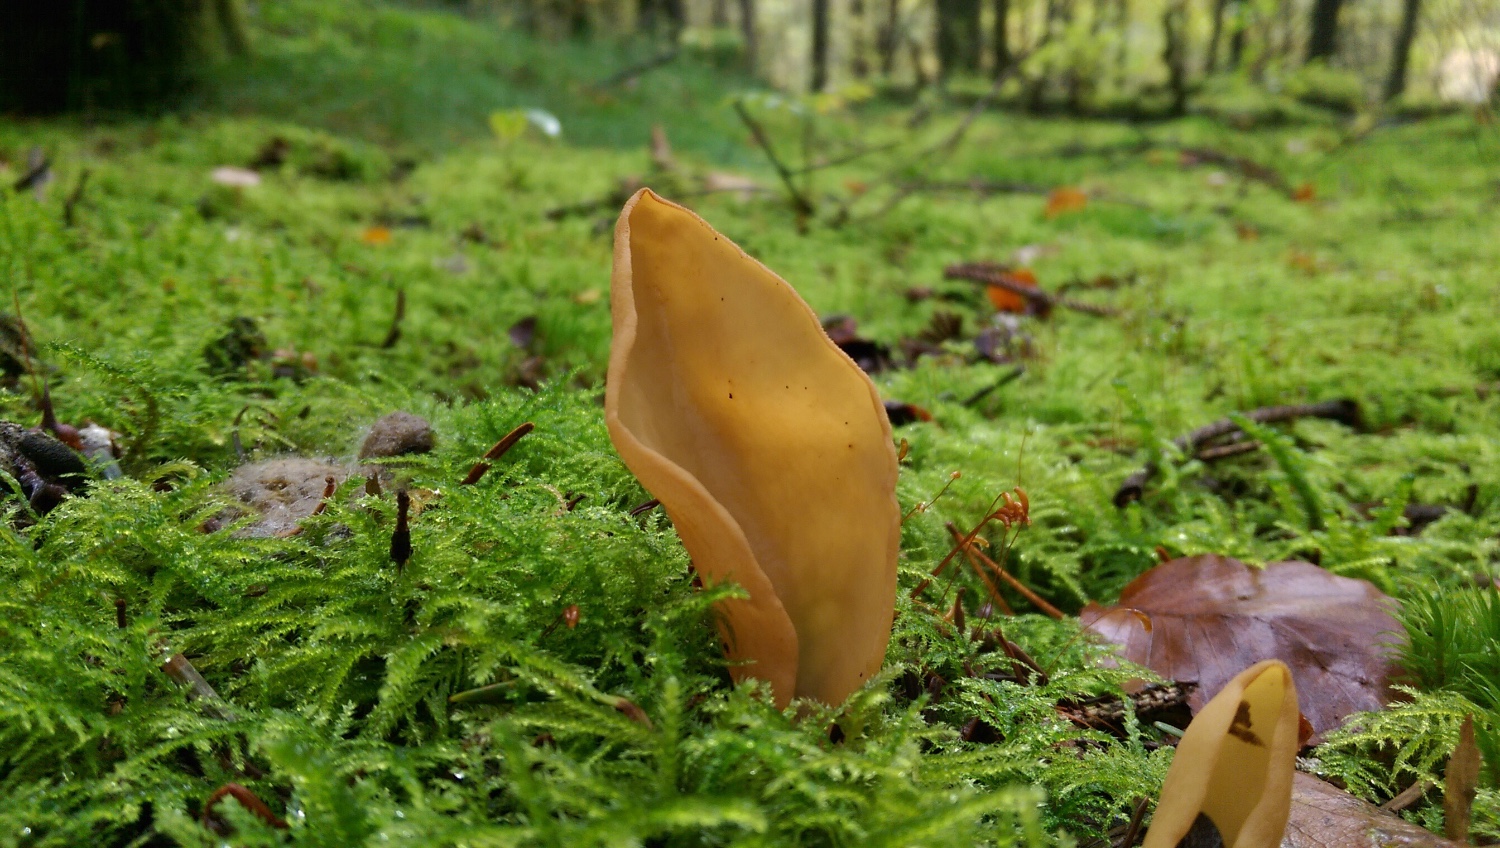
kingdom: Fungi
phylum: Ascomycota
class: Pezizomycetes
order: Pezizales
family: Otideaceae
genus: Otidea
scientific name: Otidea
